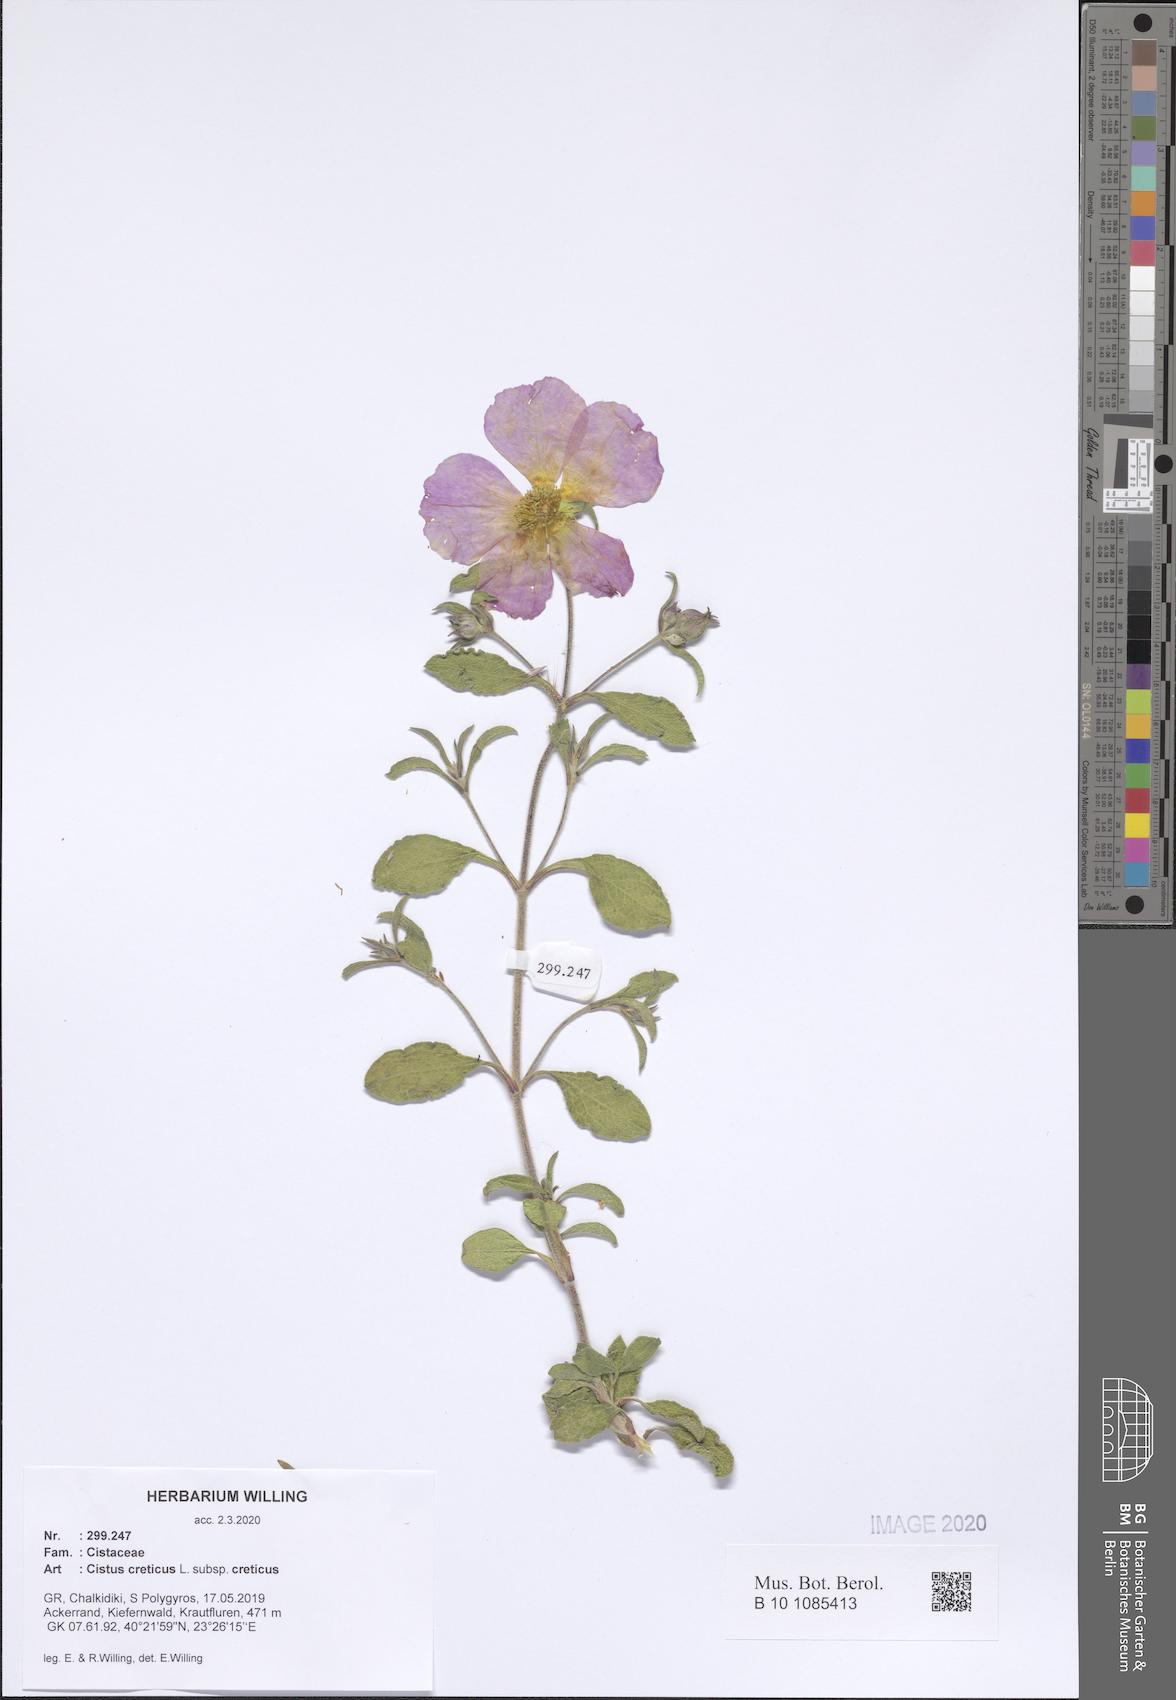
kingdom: Plantae
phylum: Tracheophyta
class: Magnoliopsida
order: Malvales
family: Cistaceae
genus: Cistus
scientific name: Cistus creticus
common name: Cretan rockrose
